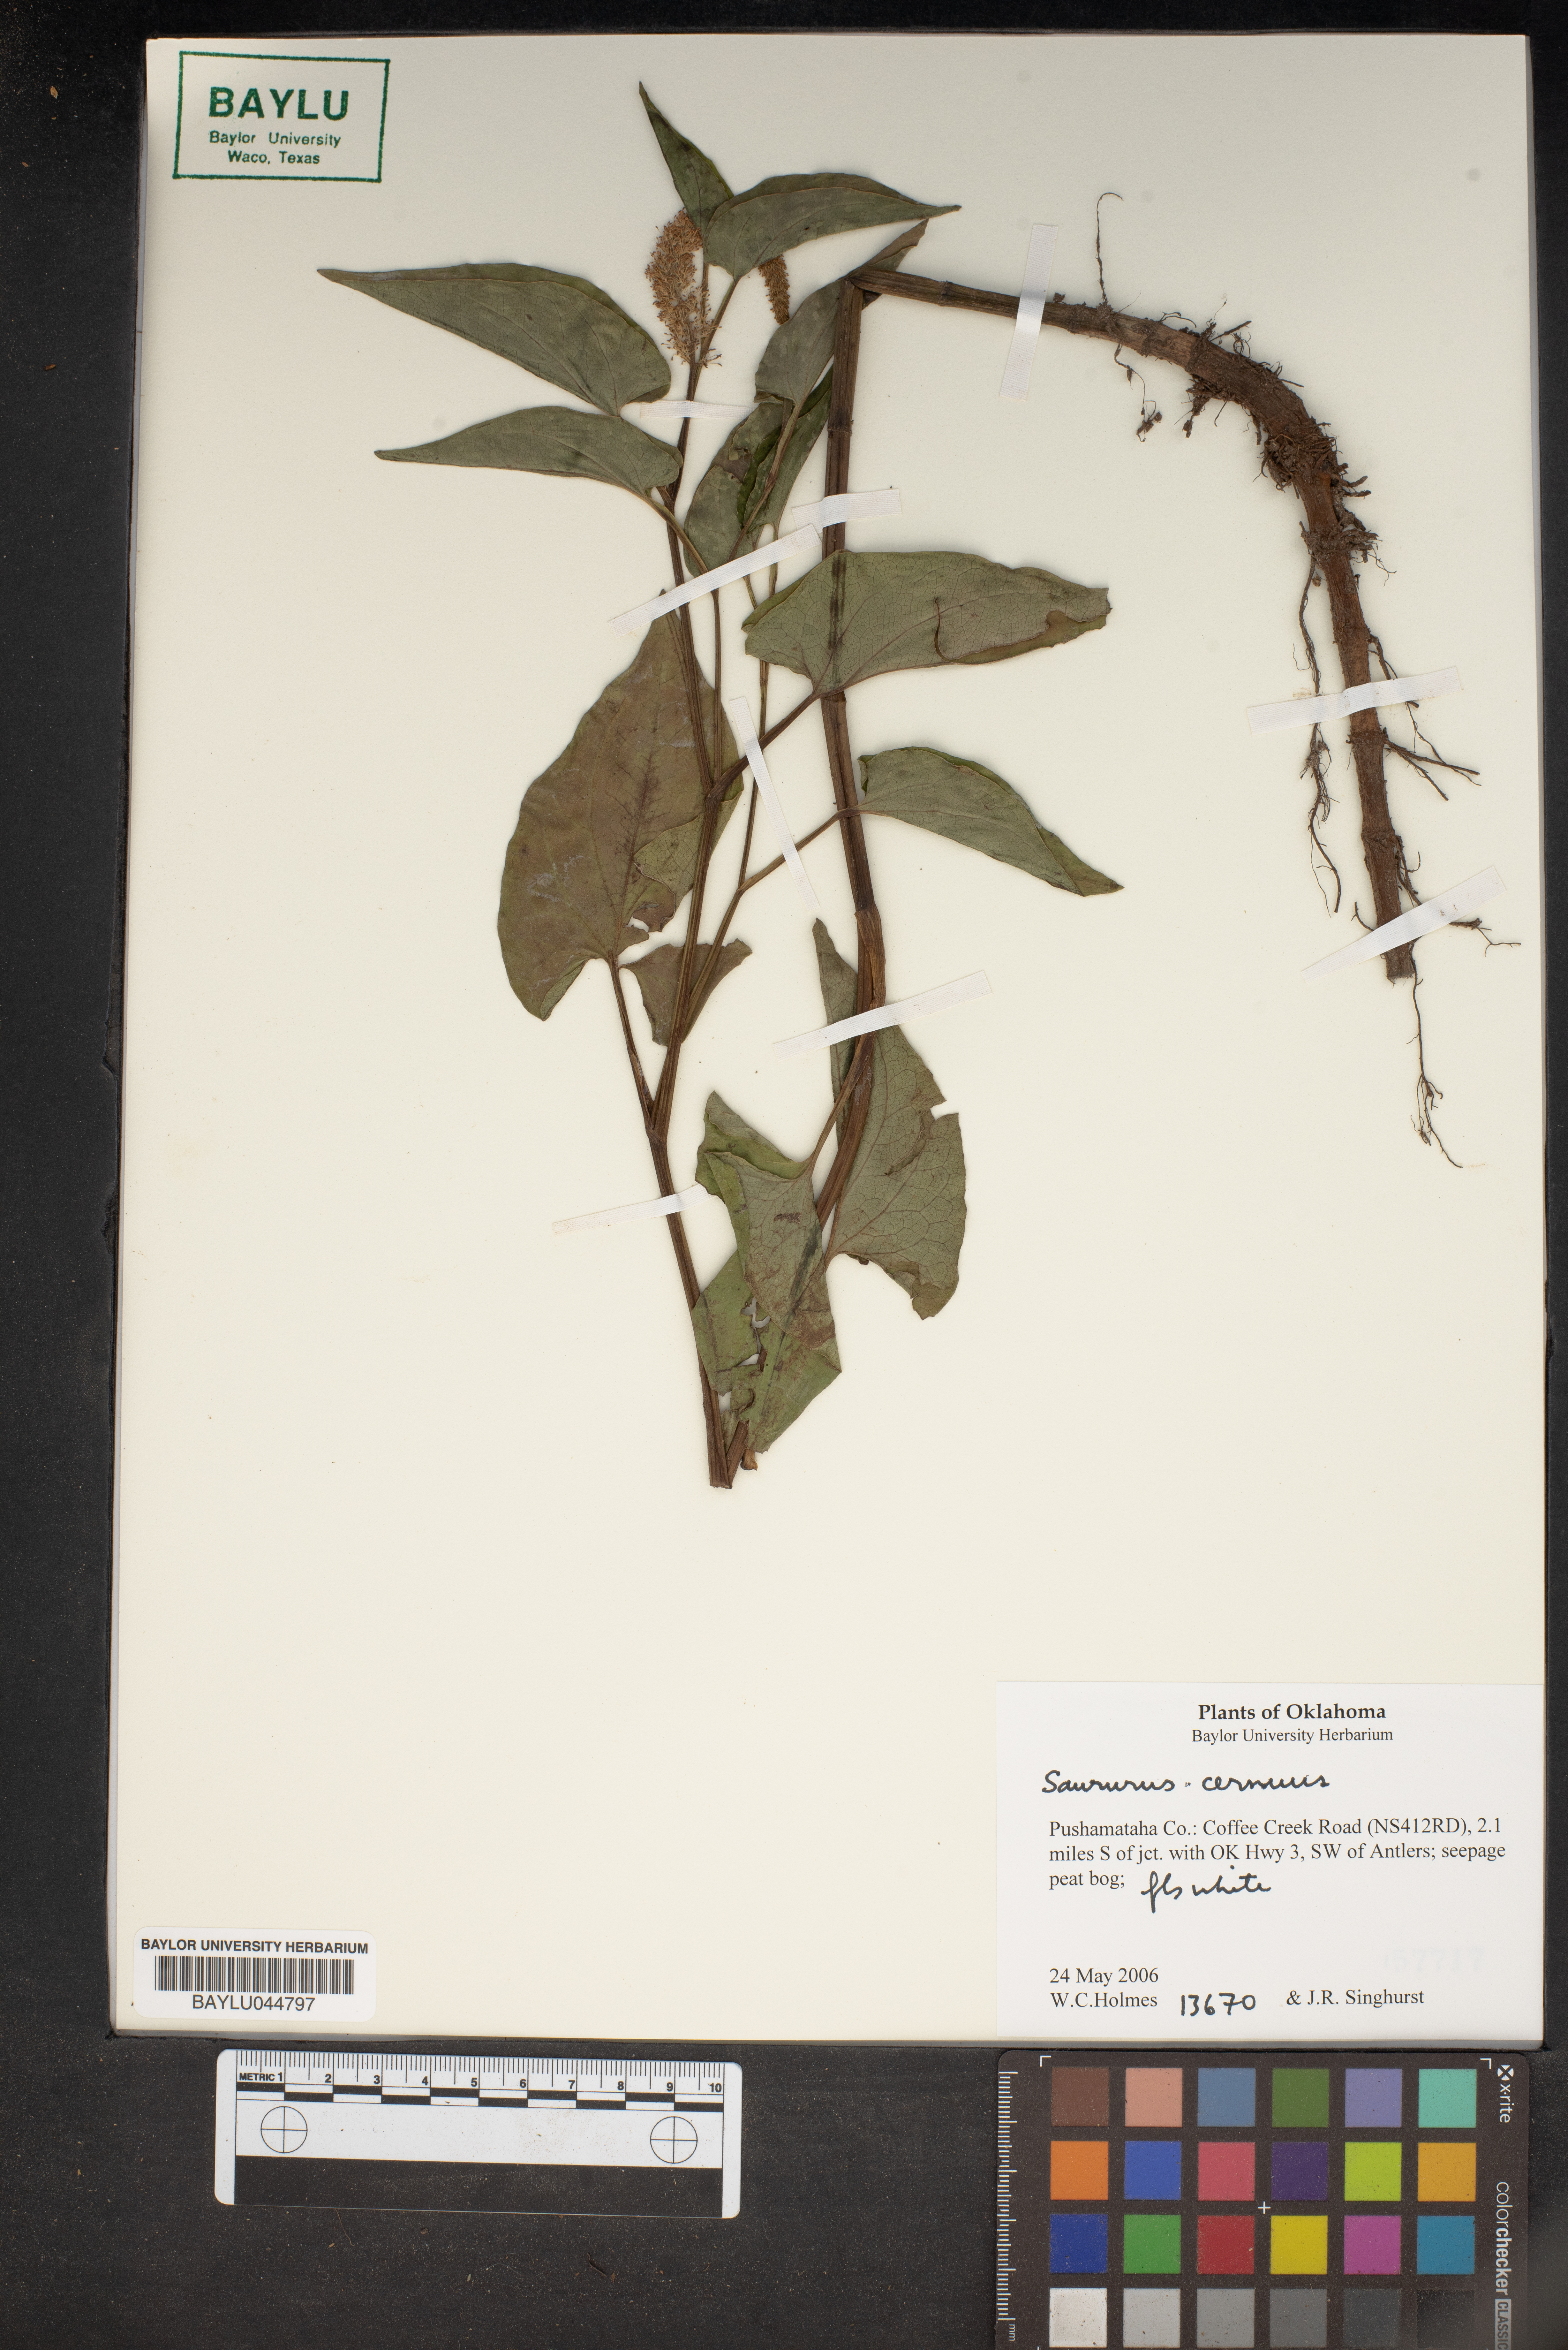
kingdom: Plantae
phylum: Tracheophyta
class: Magnoliopsida
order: Piperales
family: Saururaceae
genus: Saururus
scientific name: Saururus cernuus
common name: Lizard's-tail
